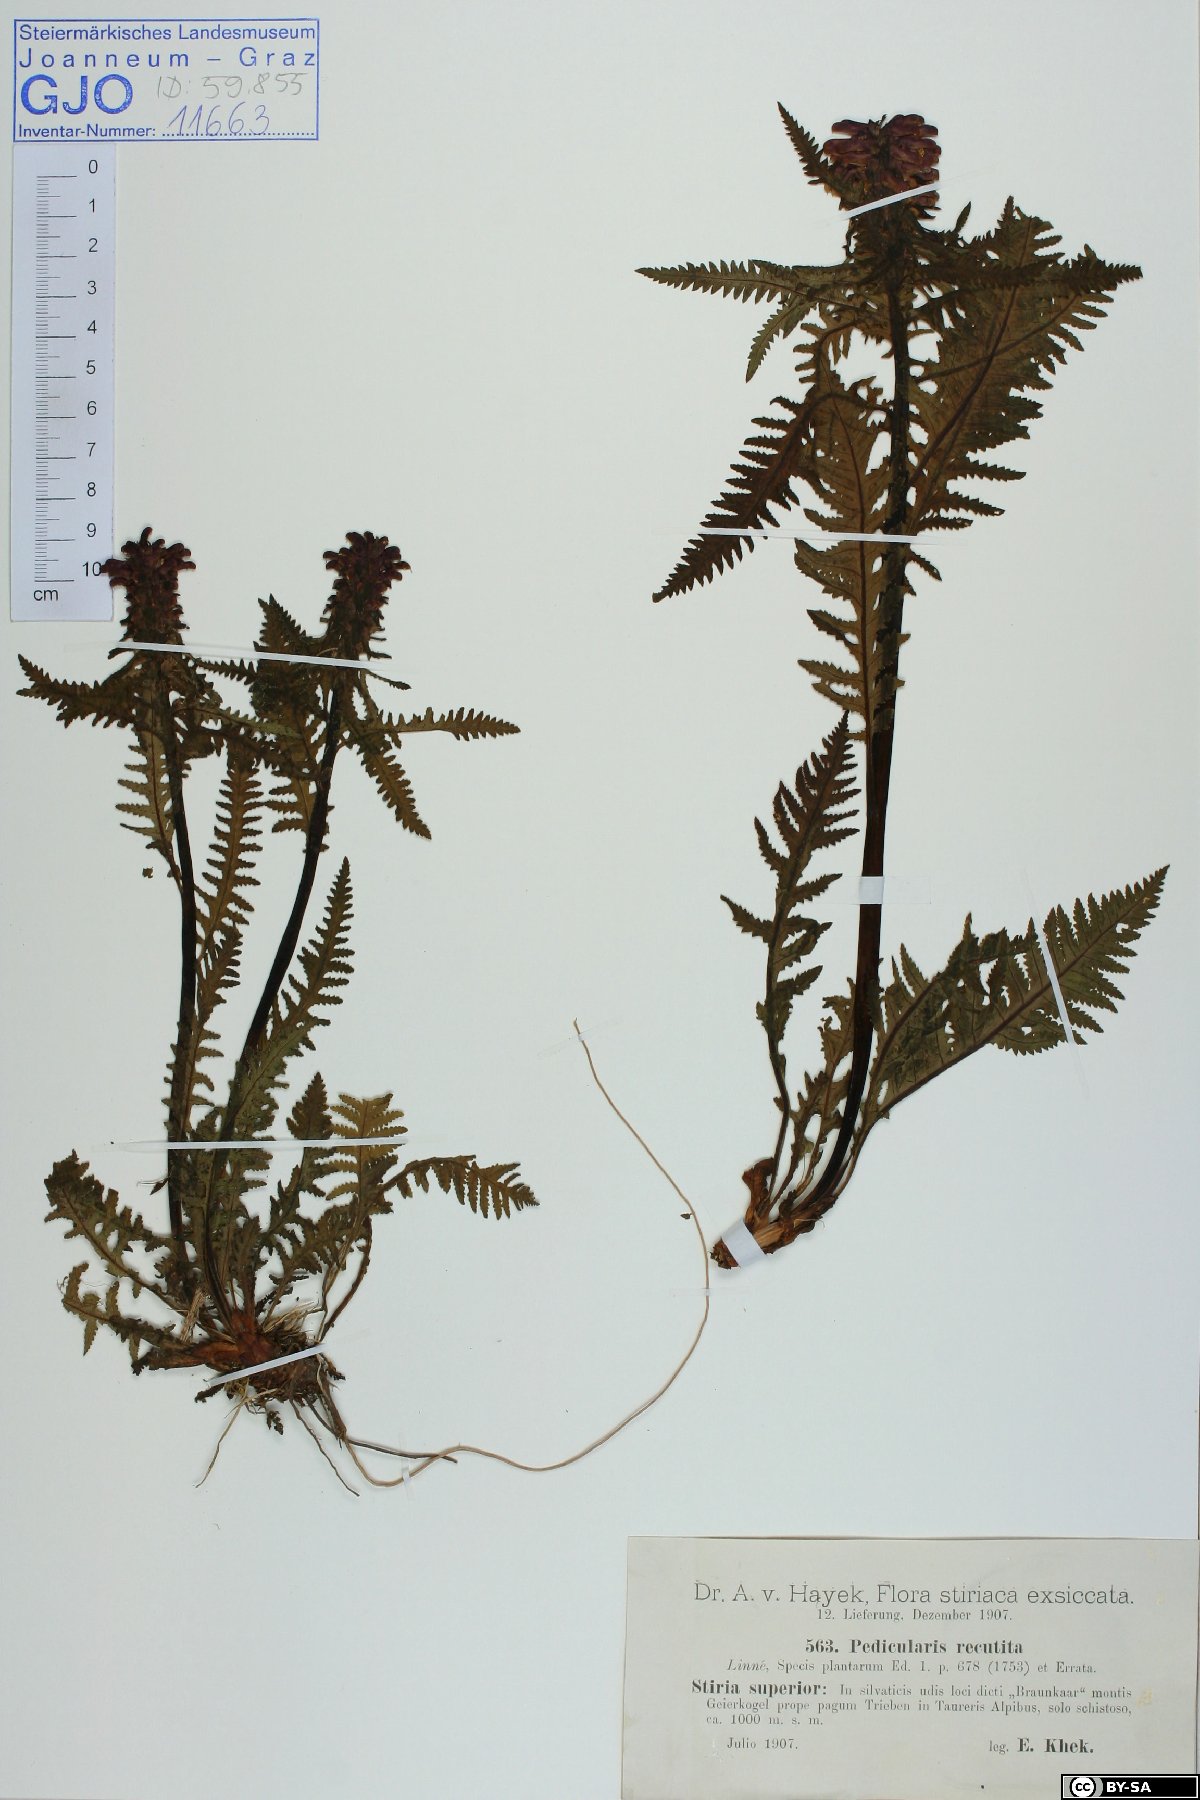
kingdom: Plantae
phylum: Tracheophyta
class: Magnoliopsida
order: Lamiales
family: Orobanchaceae
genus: Pedicularis
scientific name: Pedicularis recutita
